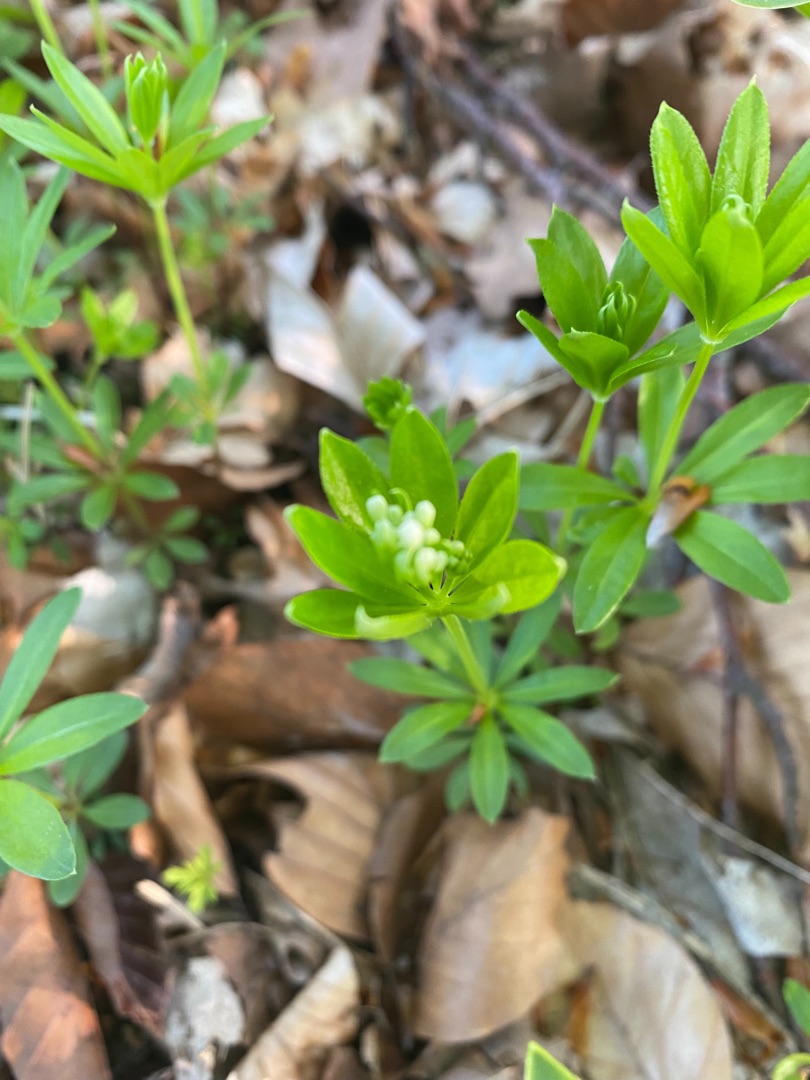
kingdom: Plantae
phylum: Tracheophyta
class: Magnoliopsida
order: Gentianales
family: Rubiaceae
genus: Galium
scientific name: Galium odoratum
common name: Skovmærke
